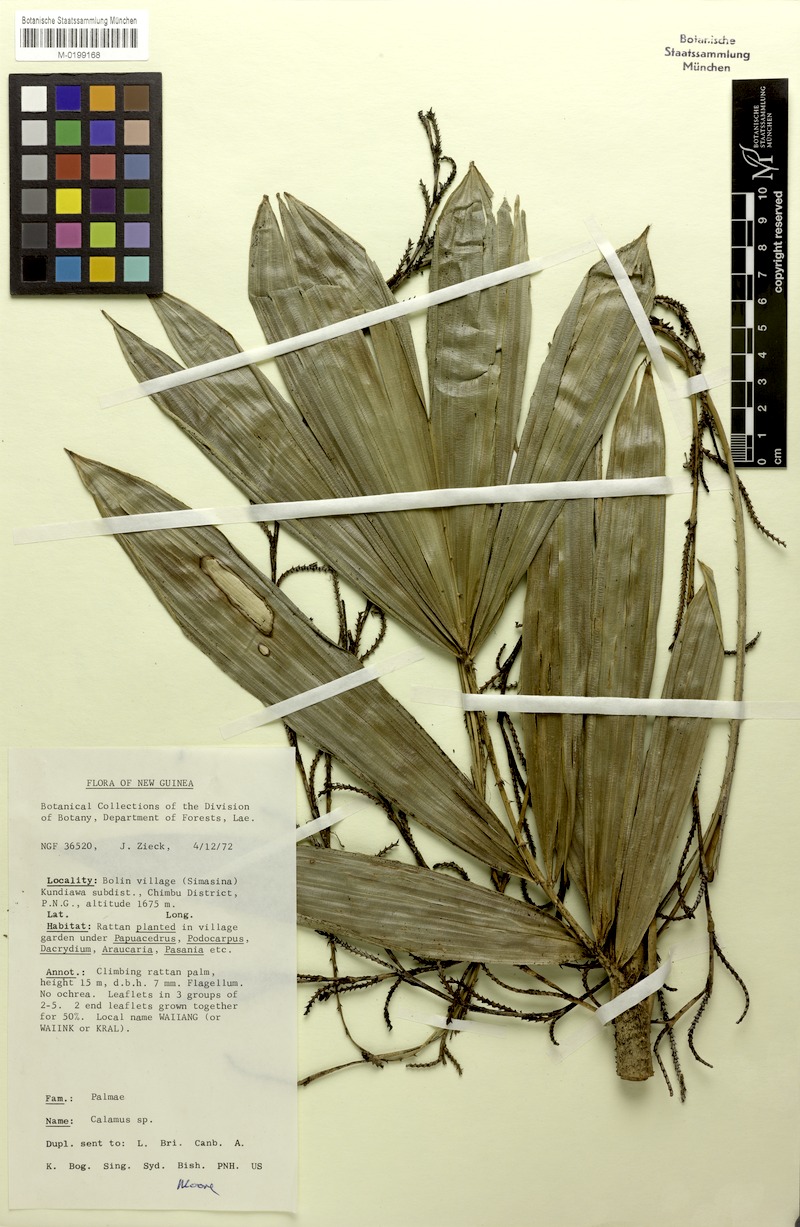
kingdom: Plantae
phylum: Tracheophyta
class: Liliopsida
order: Arecales
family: Arecaceae
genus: Calamus
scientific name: Calamus oresbiopsis
